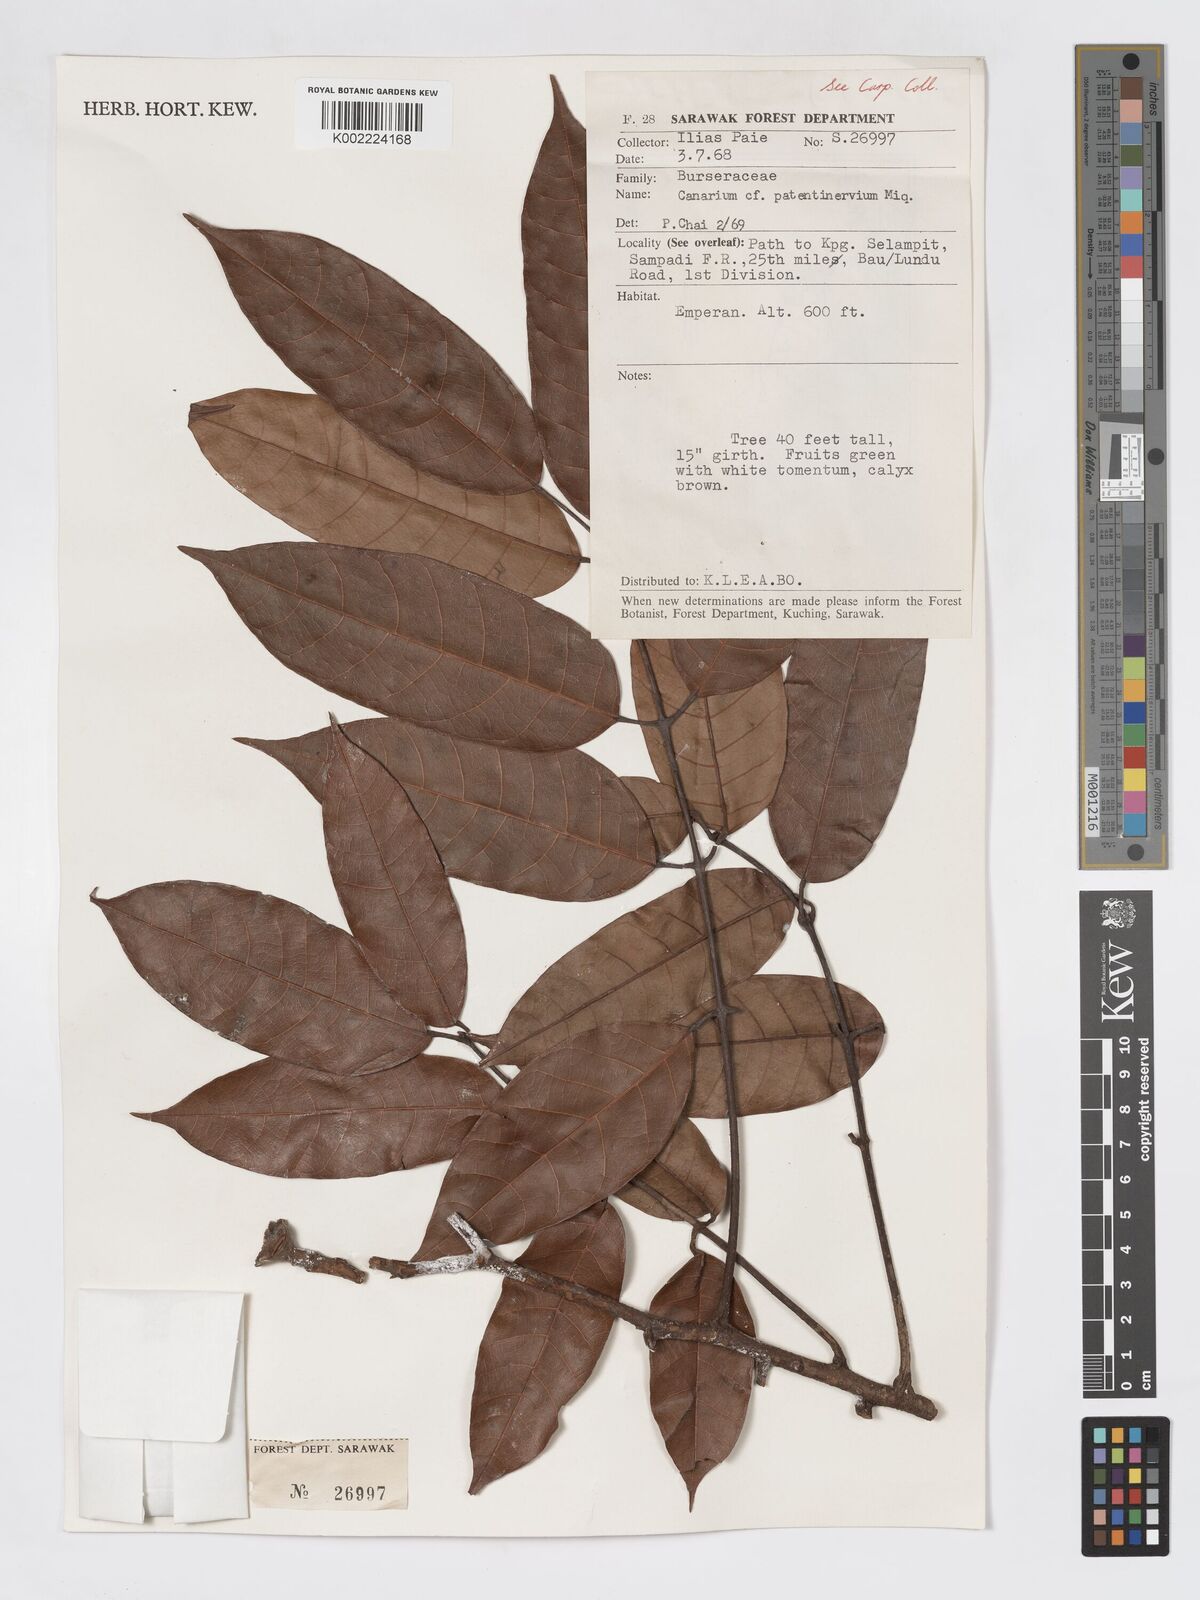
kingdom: Plantae
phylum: Tracheophyta
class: Magnoliopsida
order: Sapindales
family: Burseraceae
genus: Canarium
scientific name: Canarium patentinervium
